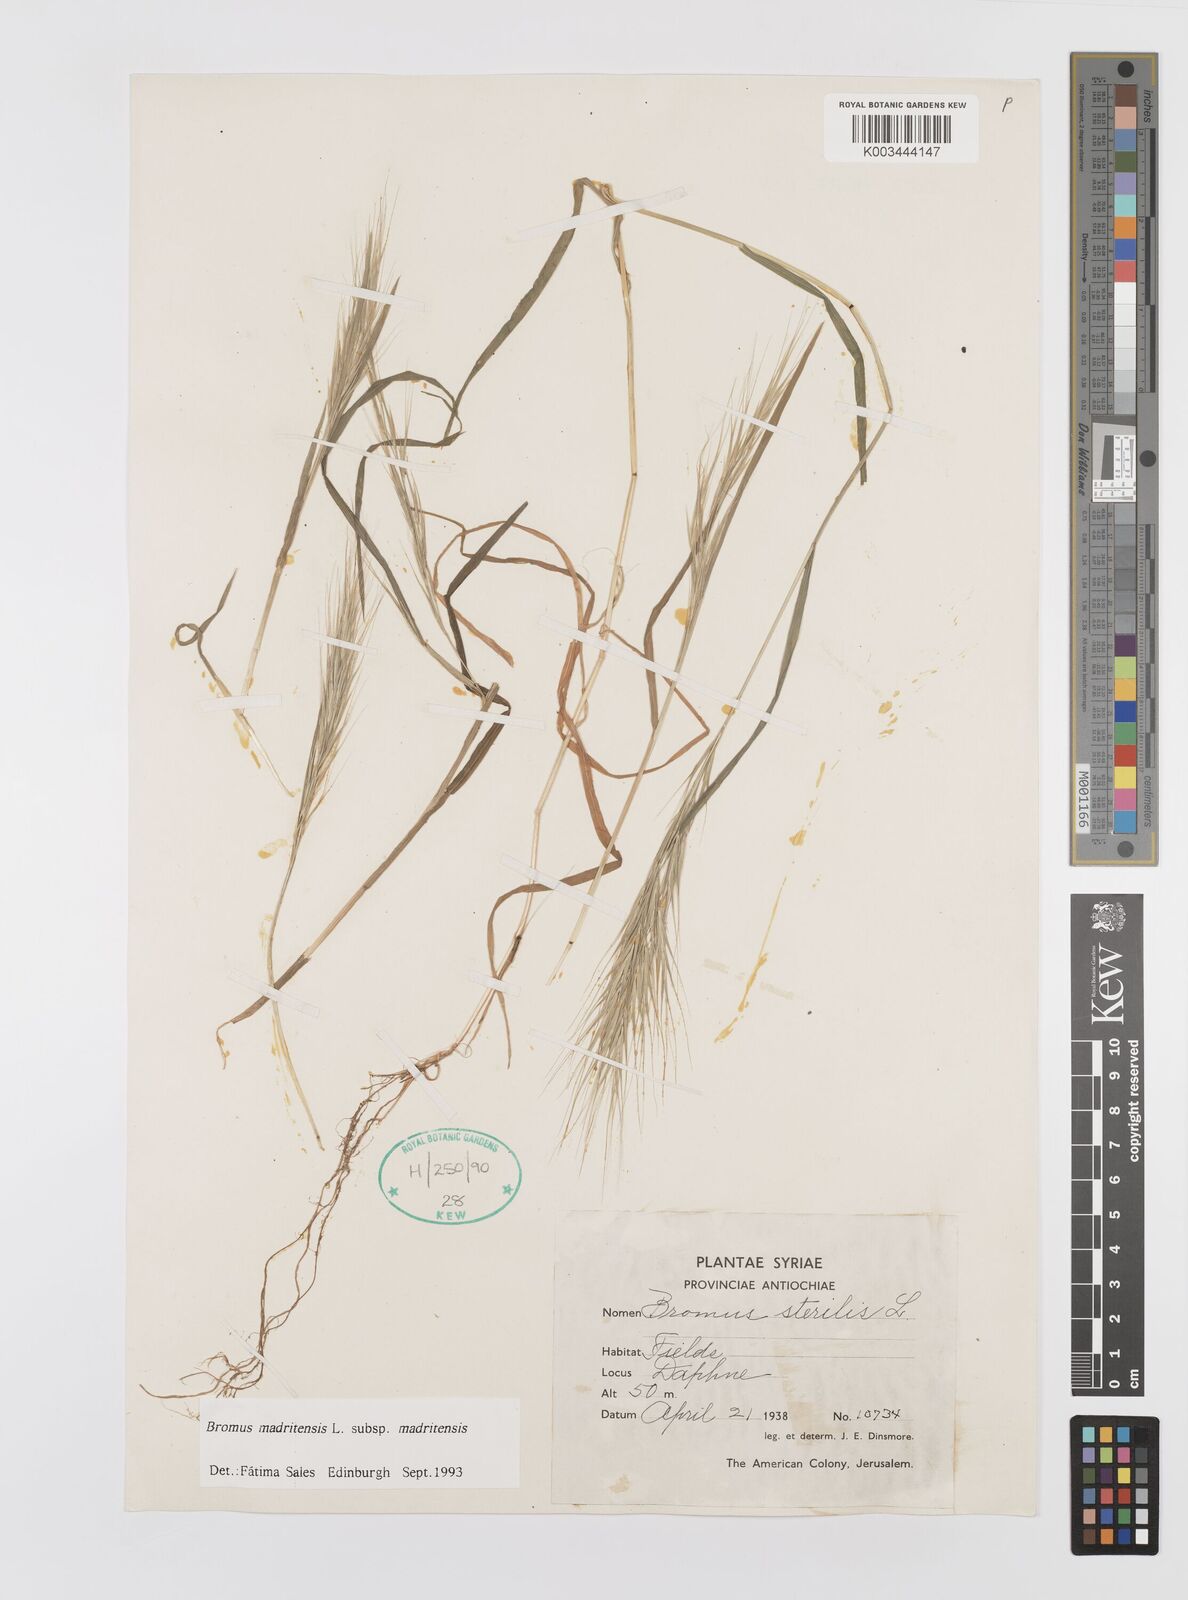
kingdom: Plantae
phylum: Tracheophyta
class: Liliopsida
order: Poales
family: Poaceae
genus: Bromus
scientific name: Bromus madritensis
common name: Compact brome
